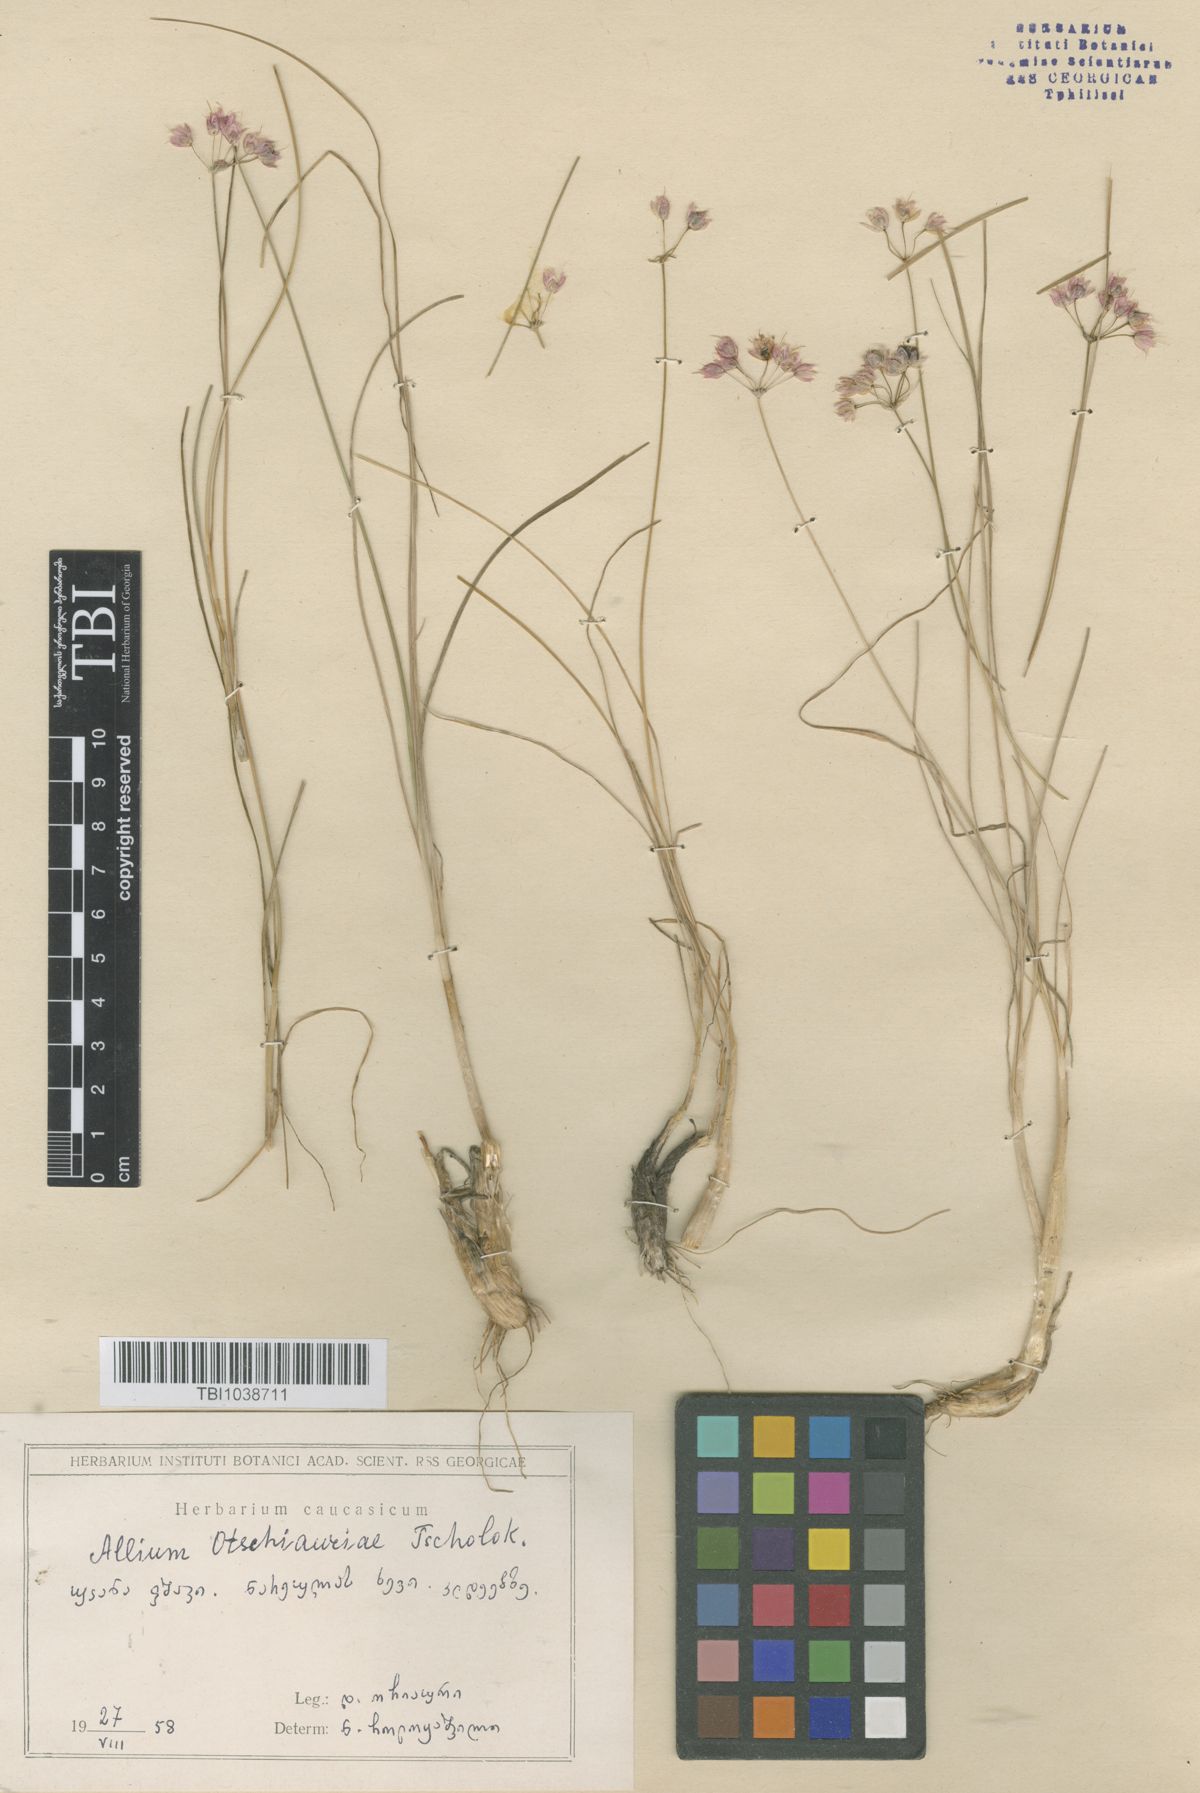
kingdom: Plantae
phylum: Tracheophyta
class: Liliopsida
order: Asparagales
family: Amaryllidaceae
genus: Allium
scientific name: Allium albovianum
